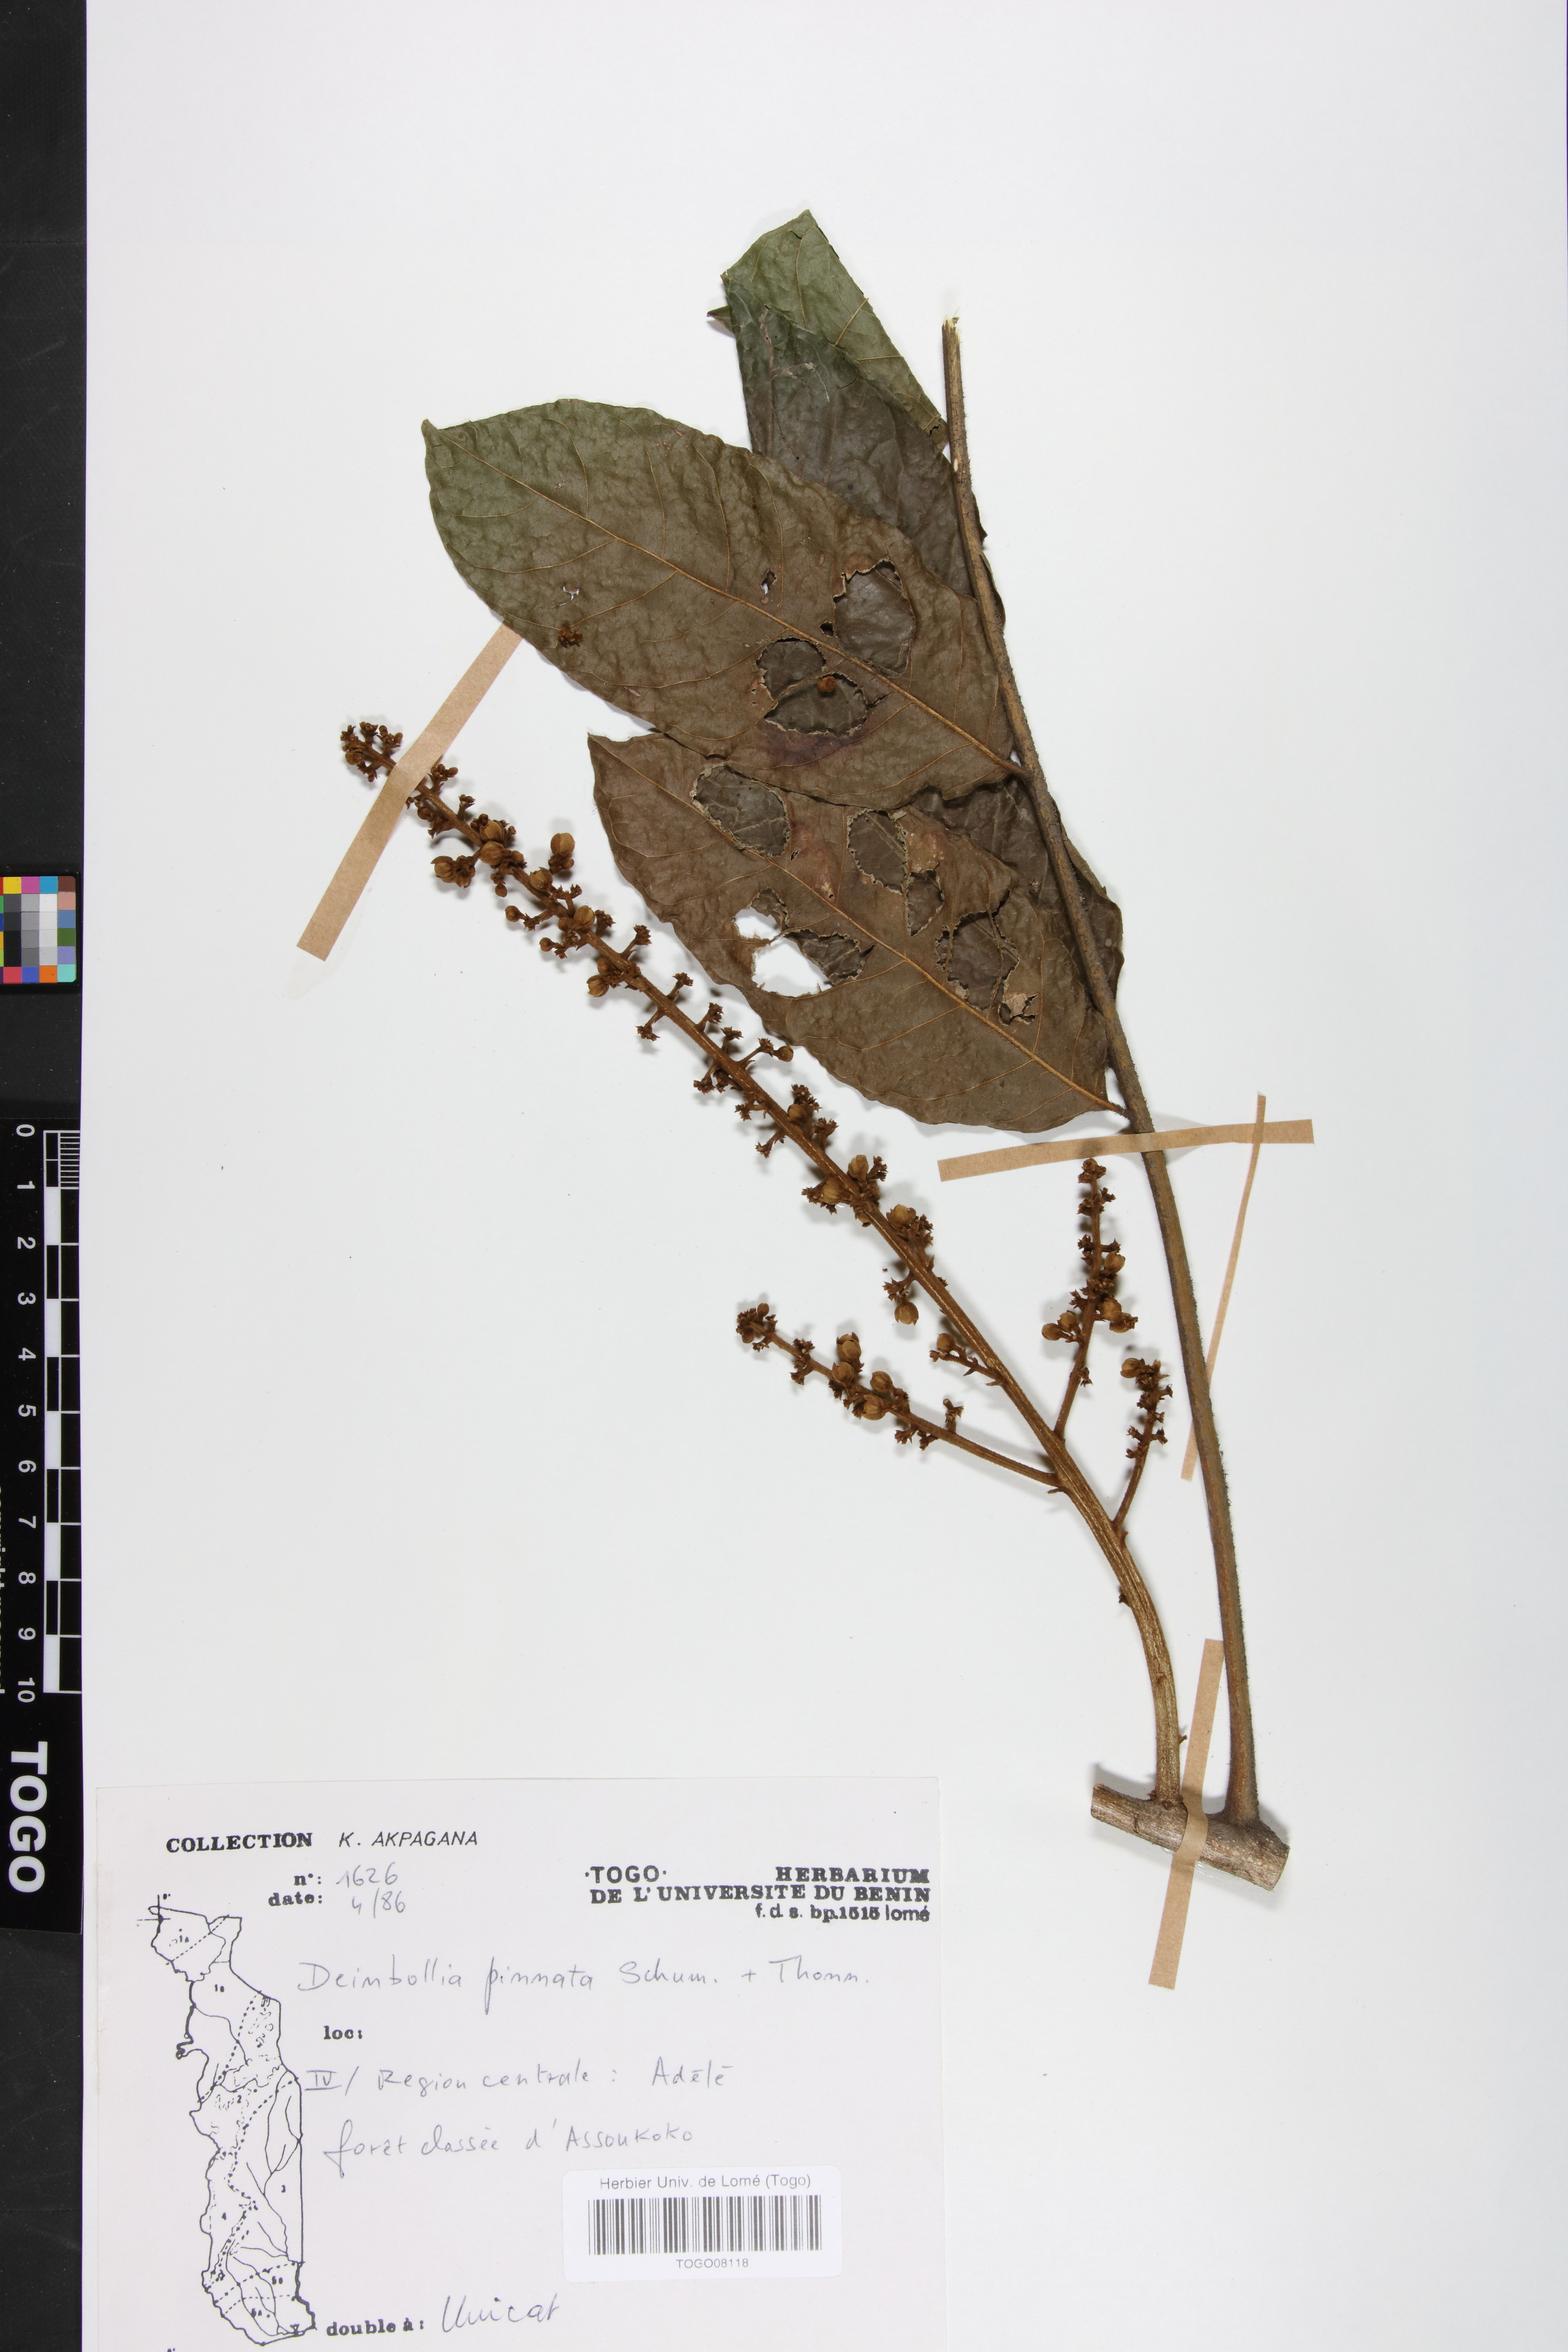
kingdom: Plantae
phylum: Tracheophyta
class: Magnoliopsida
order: Sapindales
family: Sapindaceae
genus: Deinbollia
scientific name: Deinbollia pinnata
